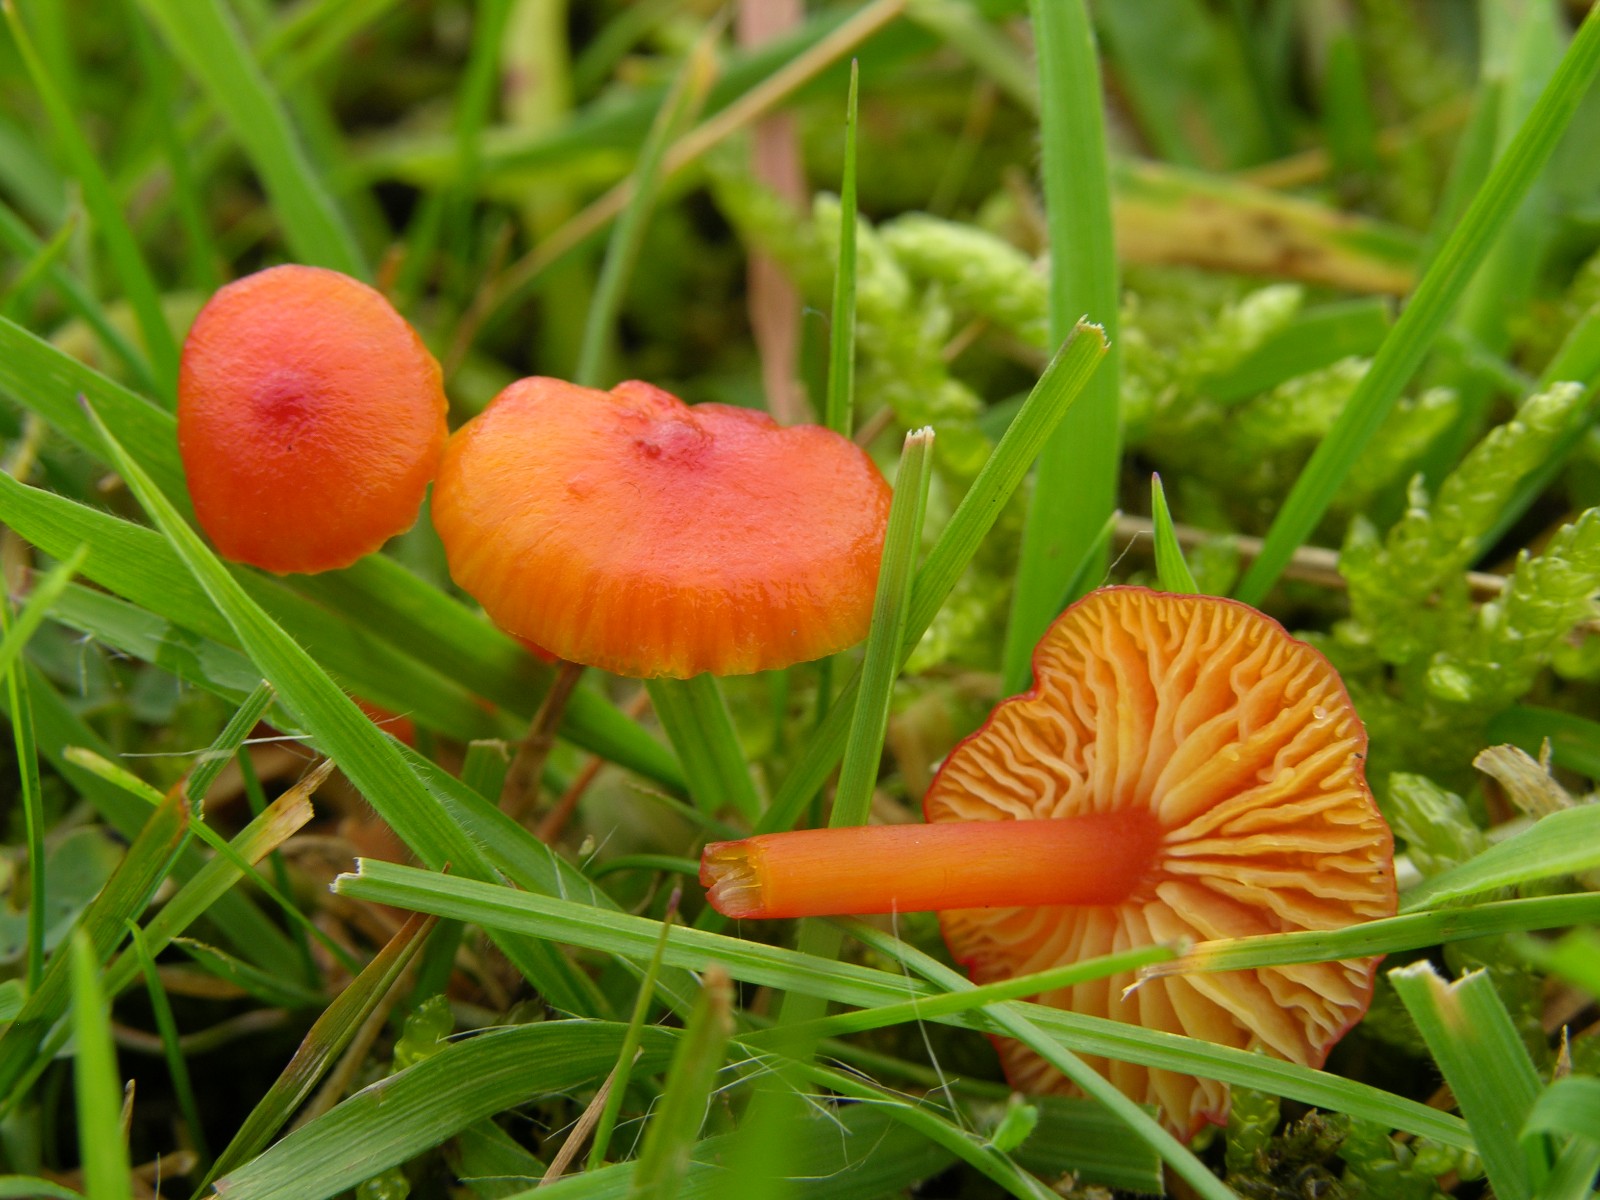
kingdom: Fungi
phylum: Basidiomycota
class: Agaricomycetes
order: Agaricales
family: Hygrophoraceae
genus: Hygrocybe
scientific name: Hygrocybe subpapillata
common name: papil-vokshat
